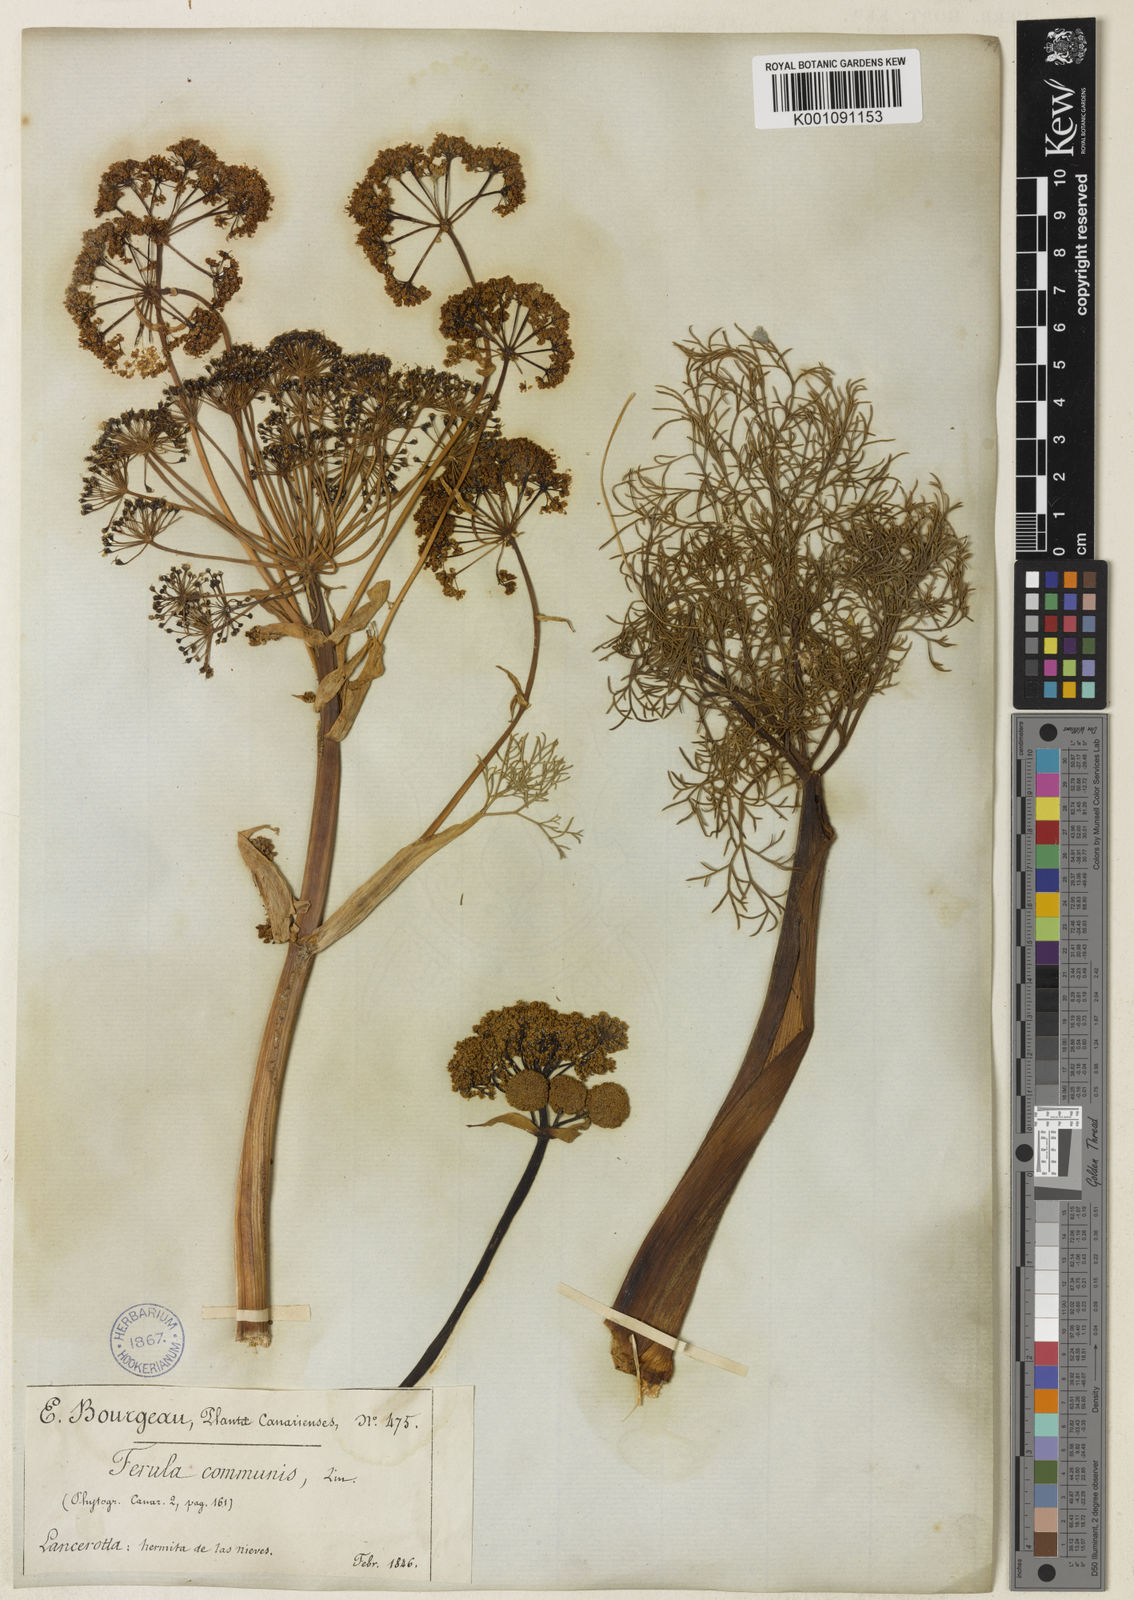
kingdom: Plantae
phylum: Tracheophyta
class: Magnoliopsida
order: Apiales
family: Apiaceae
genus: Ferula
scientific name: Ferula communis
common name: Giant fennel
